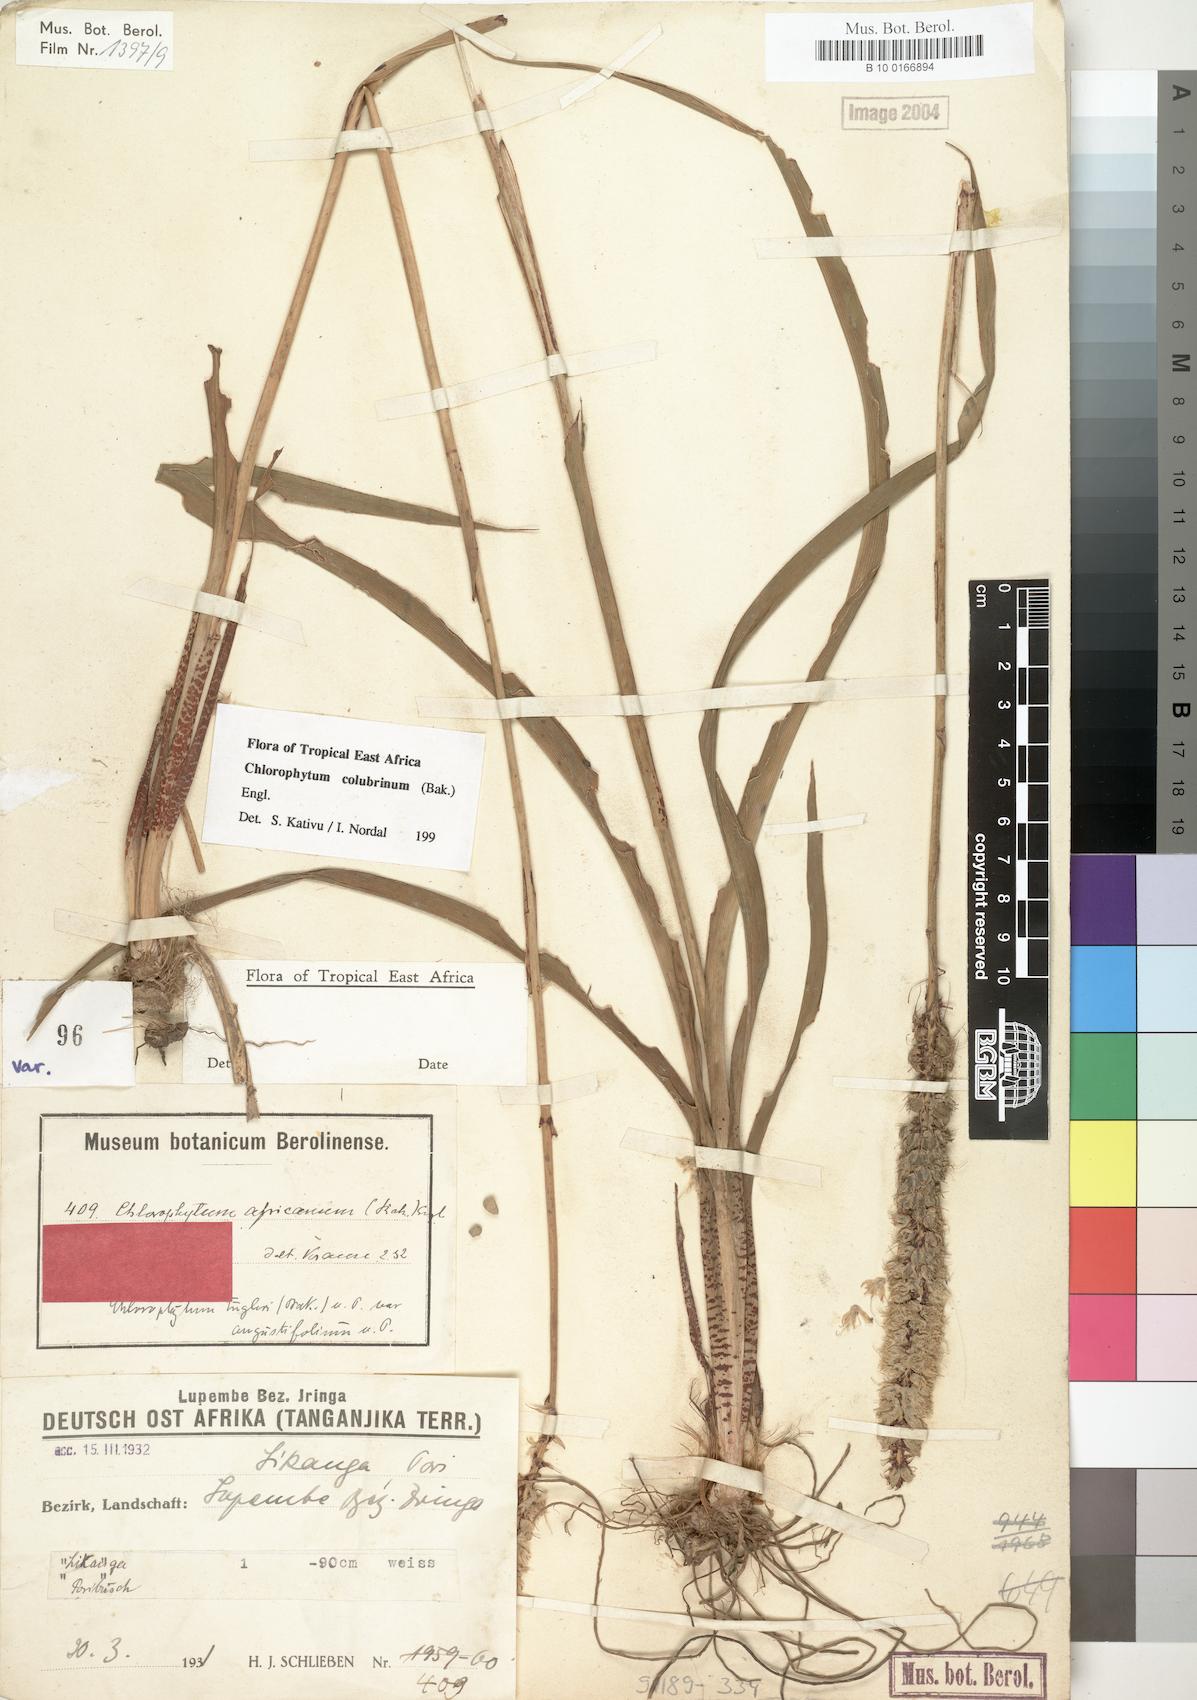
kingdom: Plantae
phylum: Tracheophyta
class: Liliopsida
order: Asparagales
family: Asparagaceae
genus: Chlorophytum
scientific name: Chlorophytum colubrinum
